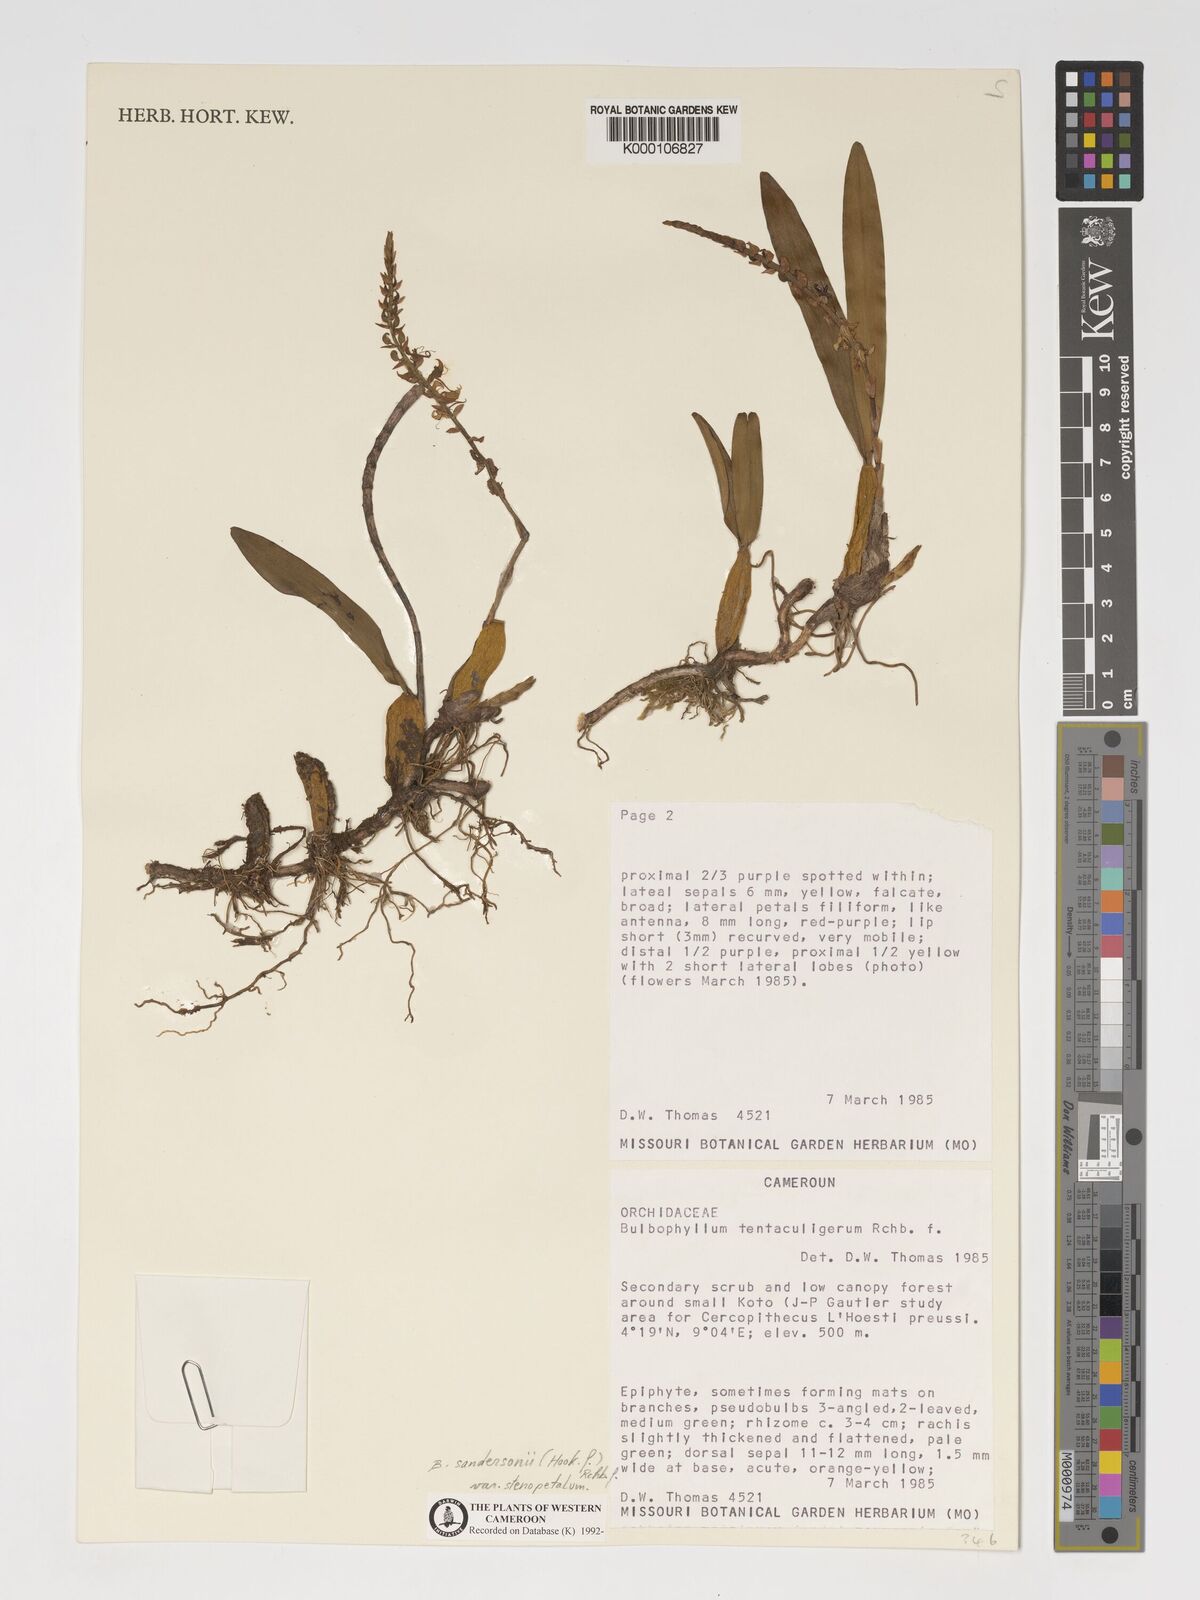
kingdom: Plantae
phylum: Tracheophyta
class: Liliopsida
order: Asparagales
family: Orchidaceae
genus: Bulbophyllum
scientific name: Bulbophyllum sandersonii
